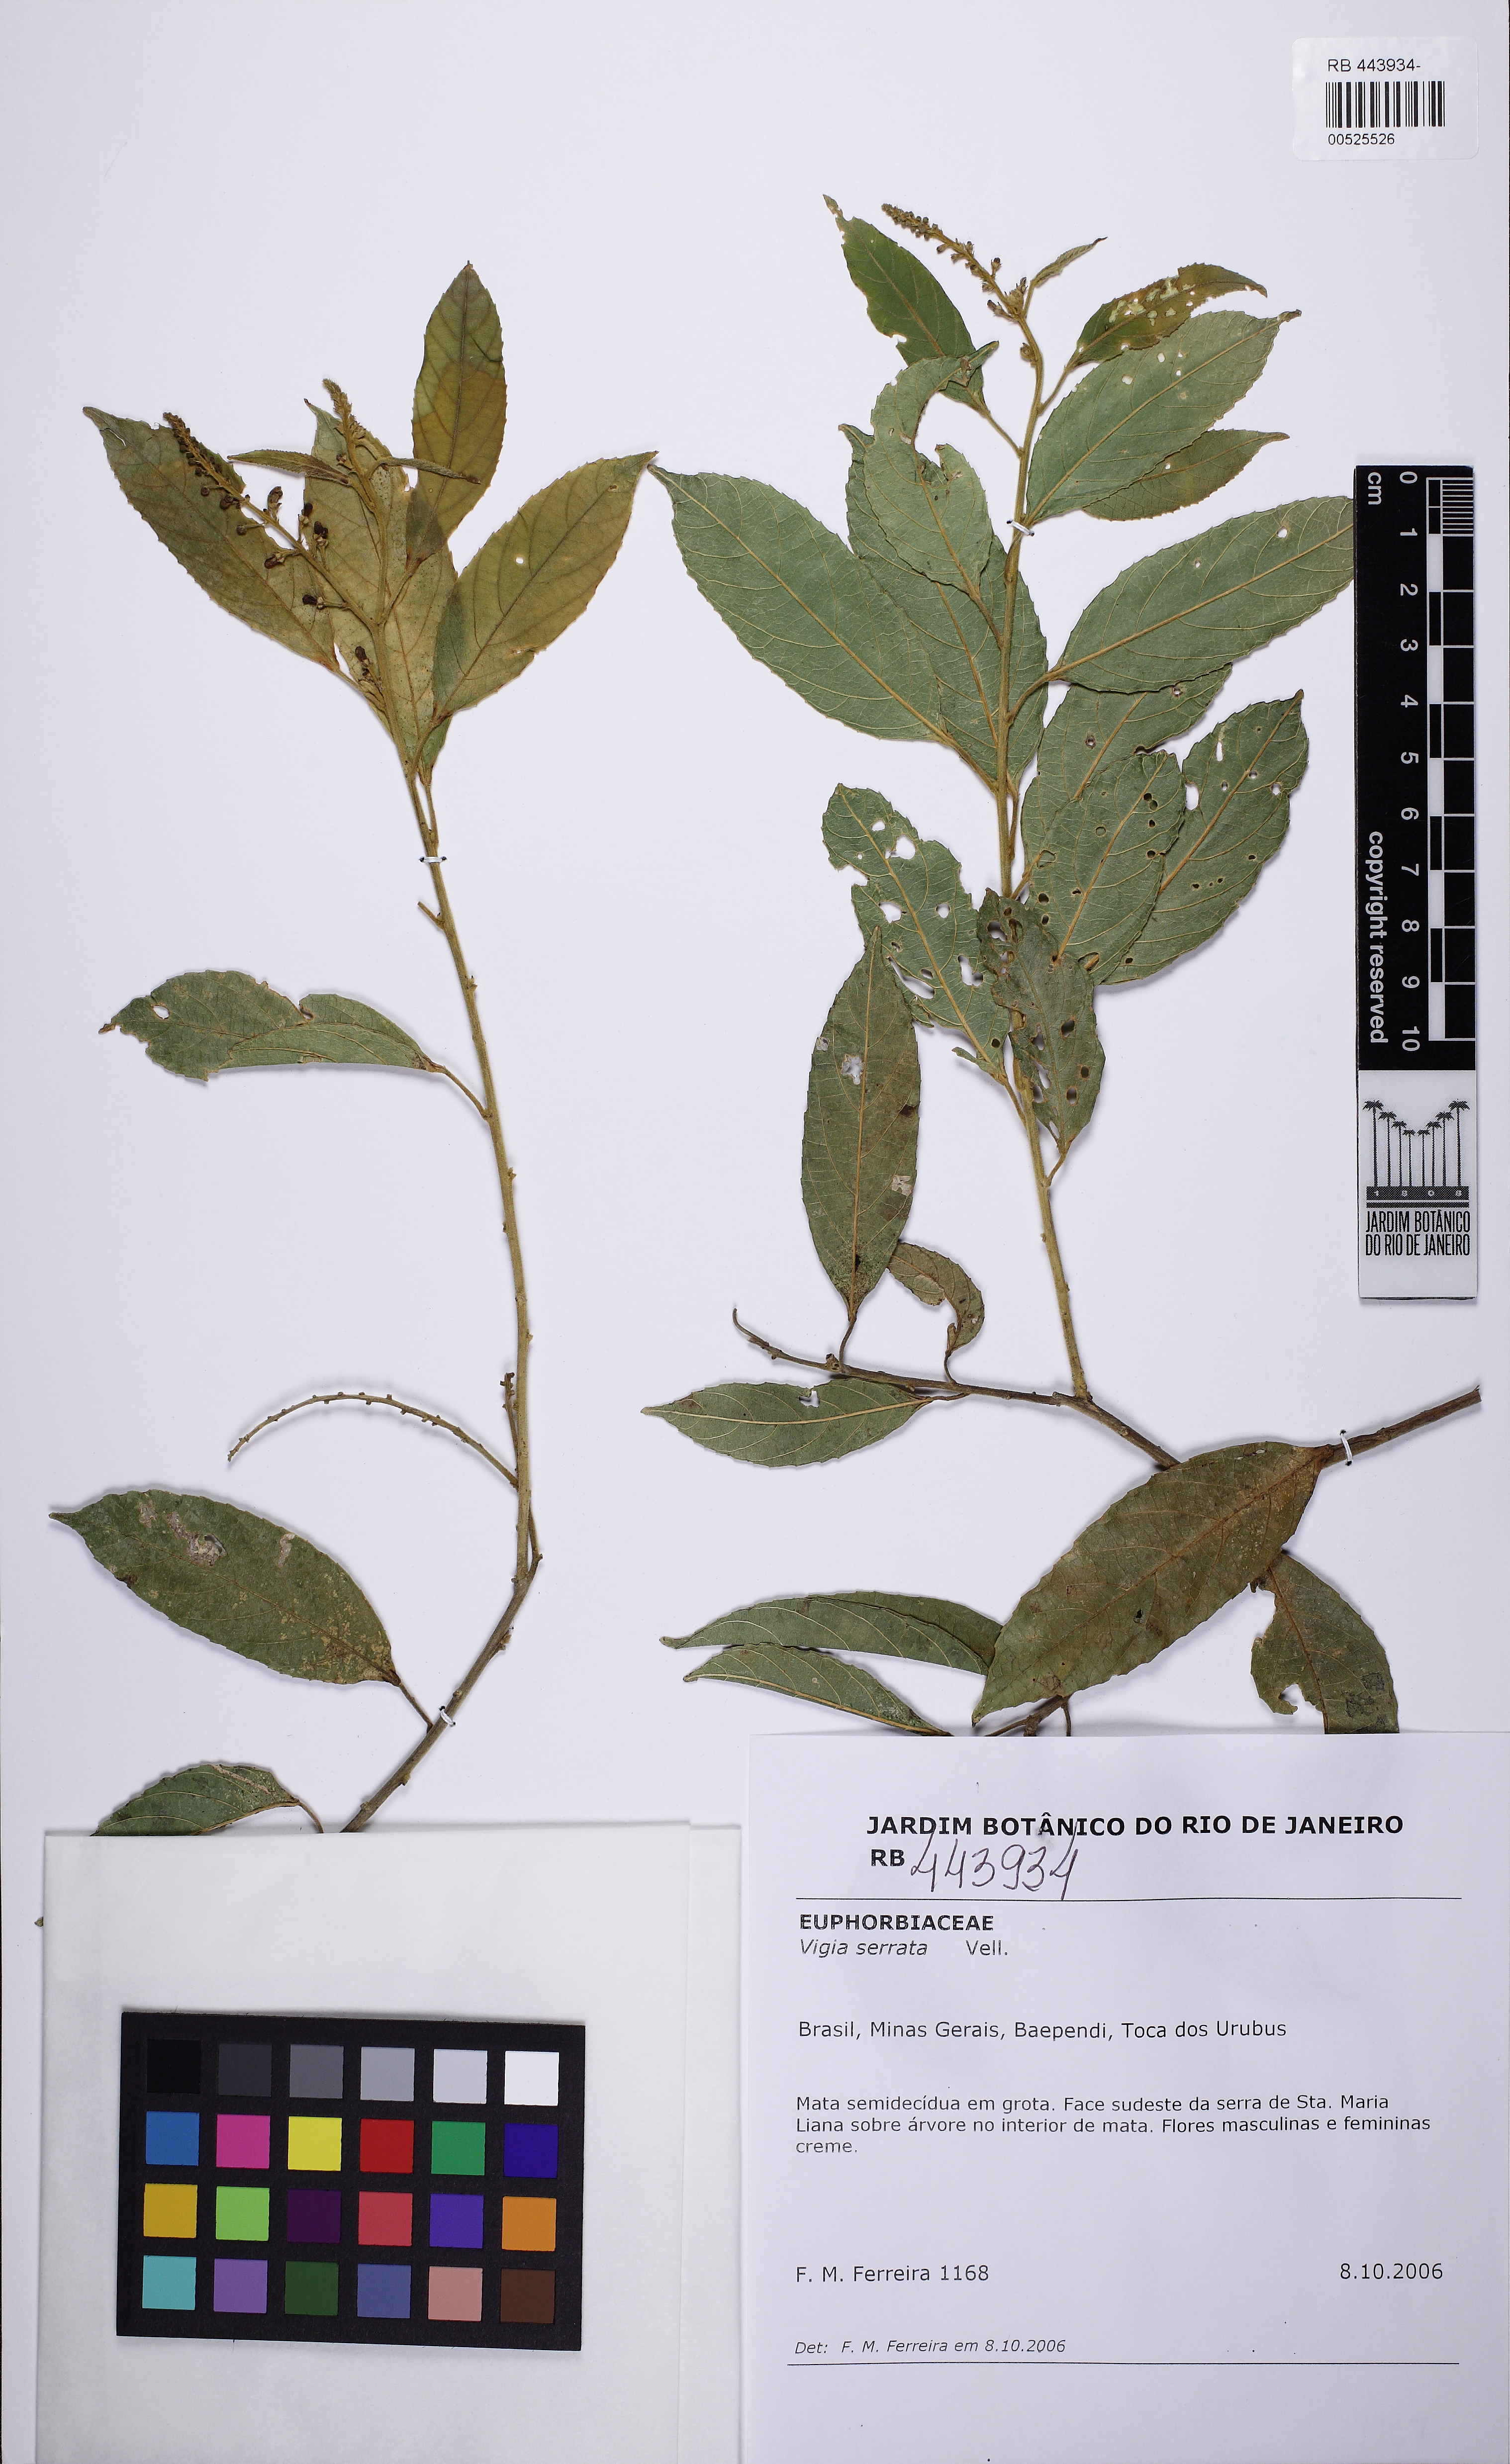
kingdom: Plantae
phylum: Tracheophyta
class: Magnoliopsida
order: Malpighiales
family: Euphorbiaceae
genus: Plukenetia
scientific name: Plukenetia serrata
